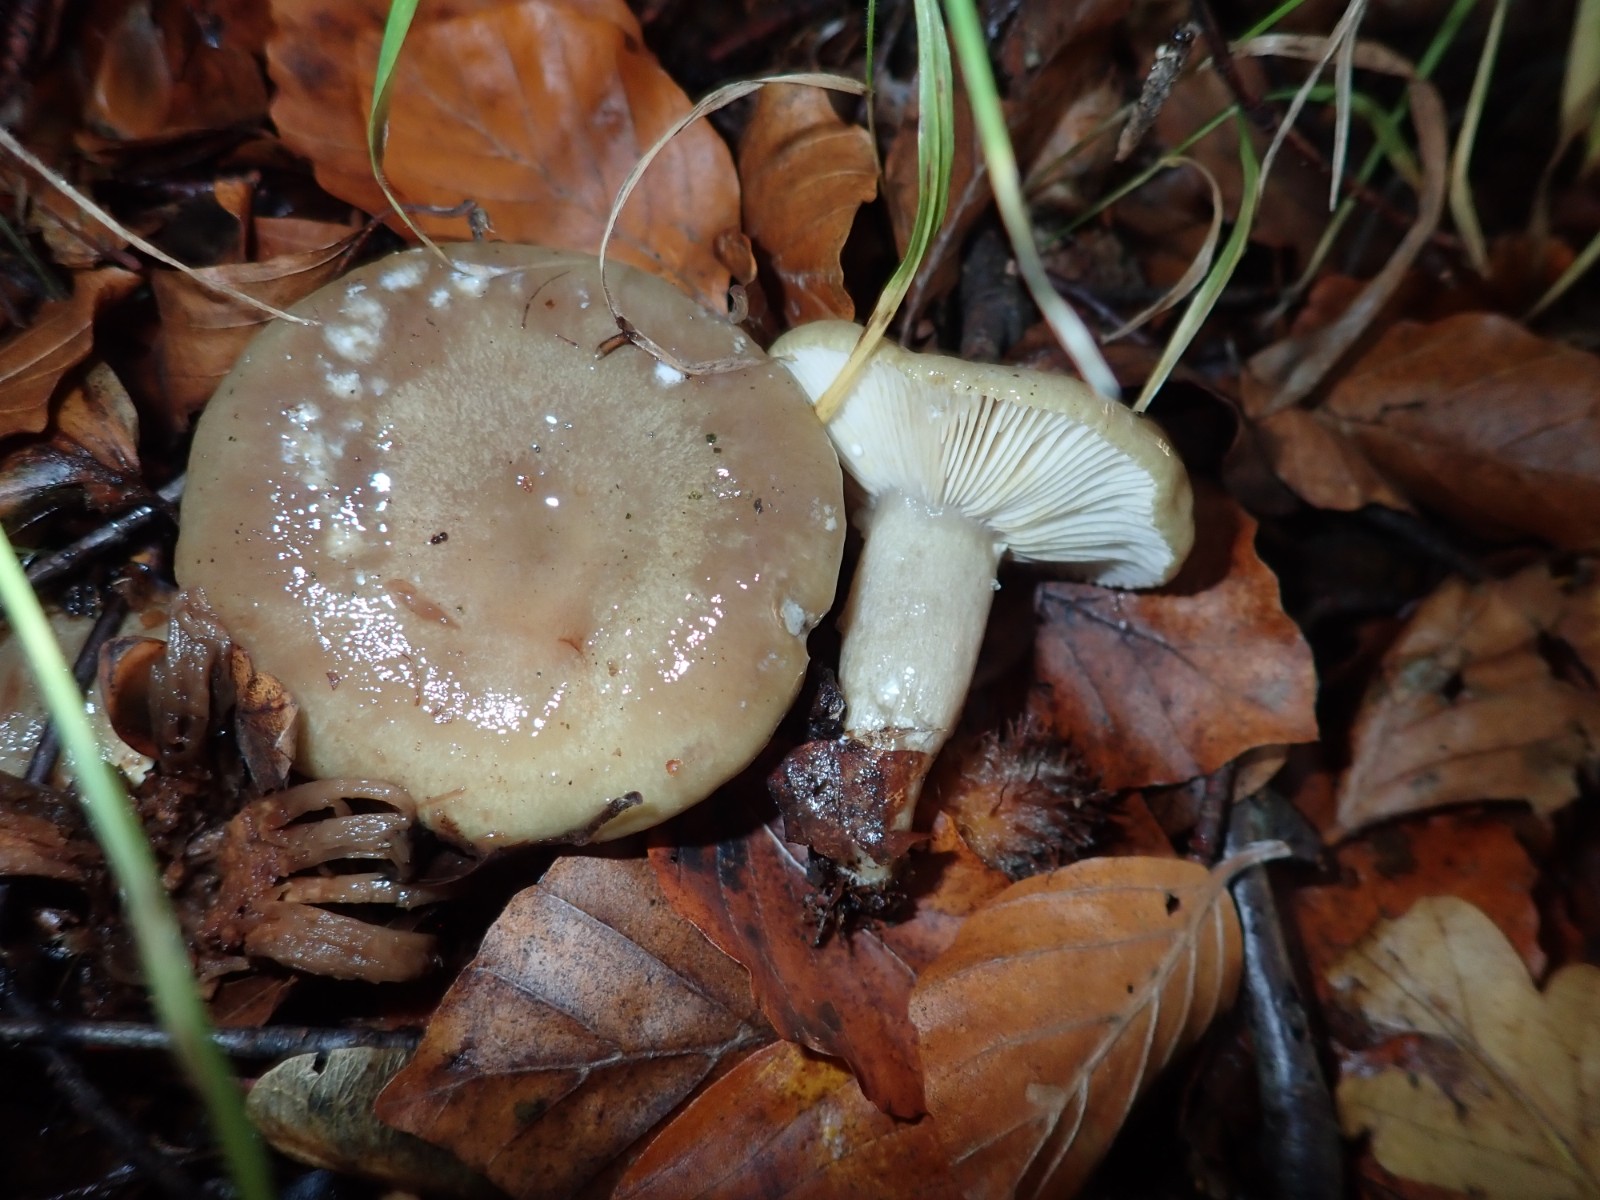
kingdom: Fungi
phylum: Basidiomycota
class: Agaricomycetes
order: Russulales
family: Russulaceae
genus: Lactarius
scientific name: Lactarius blennius
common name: dråbeplettet mælkehat
